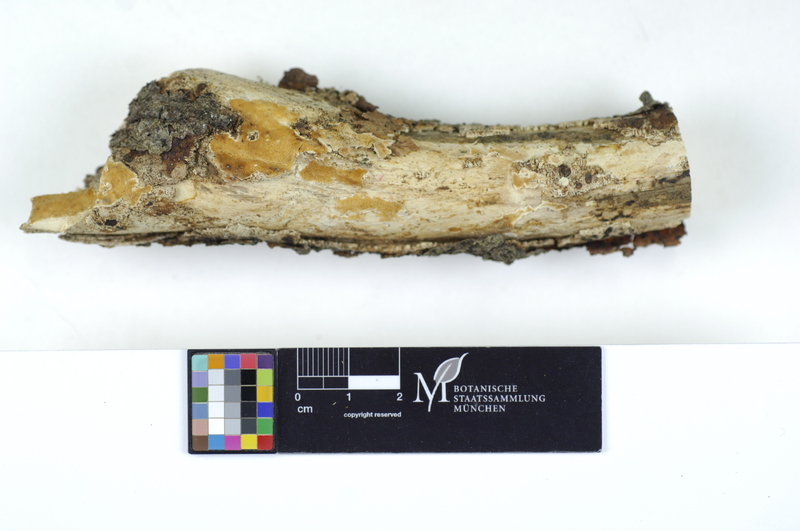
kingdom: Fungi
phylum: Basidiomycota
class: Agaricomycetes
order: Polyporales
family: Steccherinaceae
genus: Antrodiella
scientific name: Antrodiella romellii
